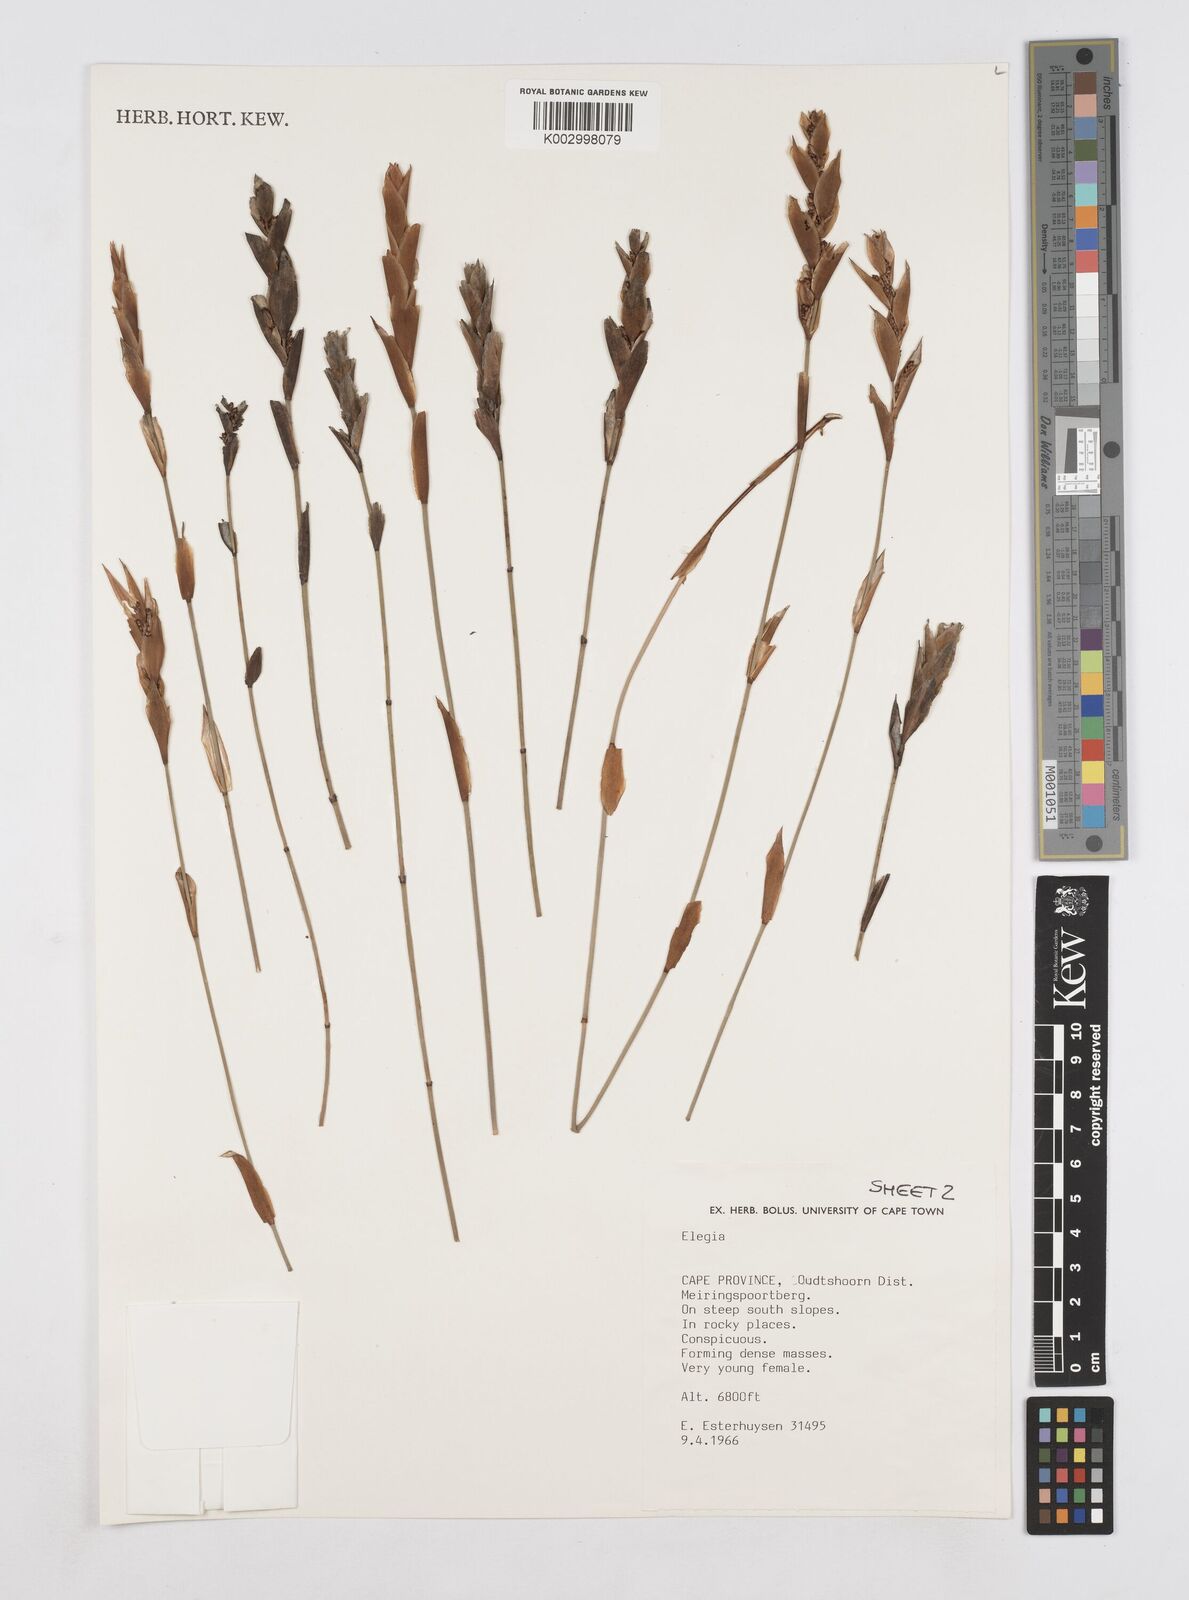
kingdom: Plantae
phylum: Tracheophyta
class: Liliopsida
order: Poales
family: Restionaceae
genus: Elegia
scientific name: Elegia
